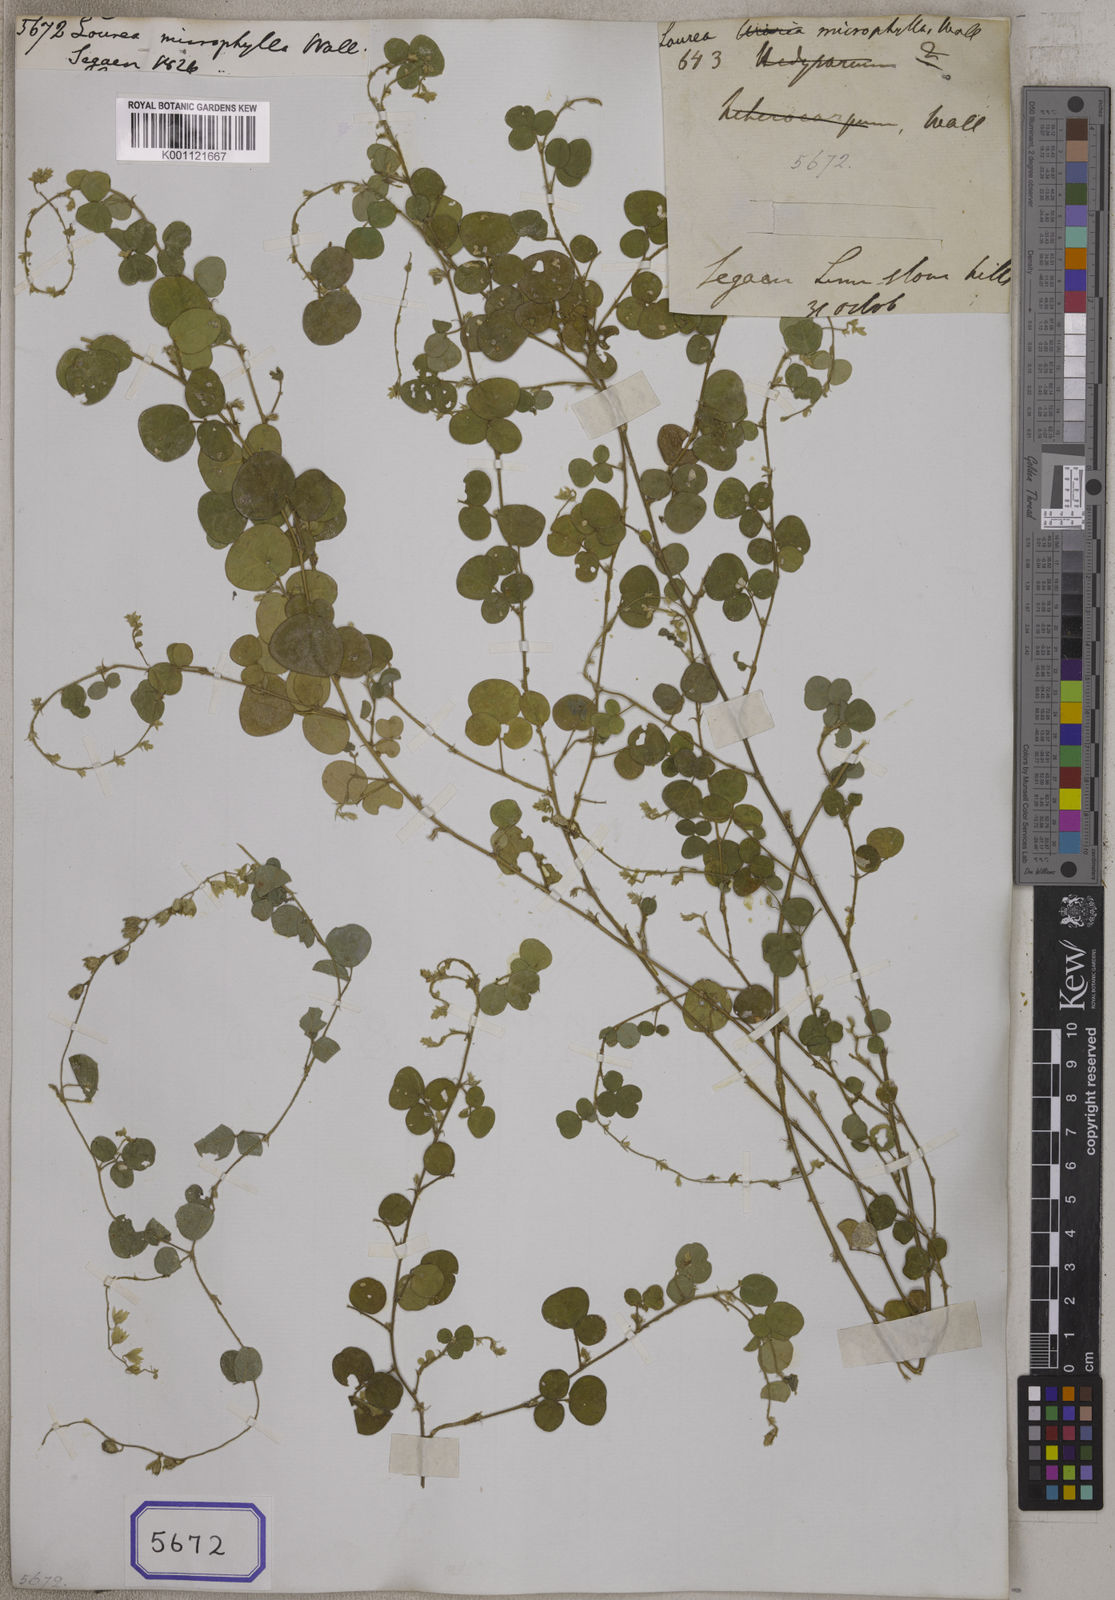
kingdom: Plantae
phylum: Tracheophyta
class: Magnoliopsida
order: Fabales
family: Fabaceae
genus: Christia
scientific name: Christia obcordata
